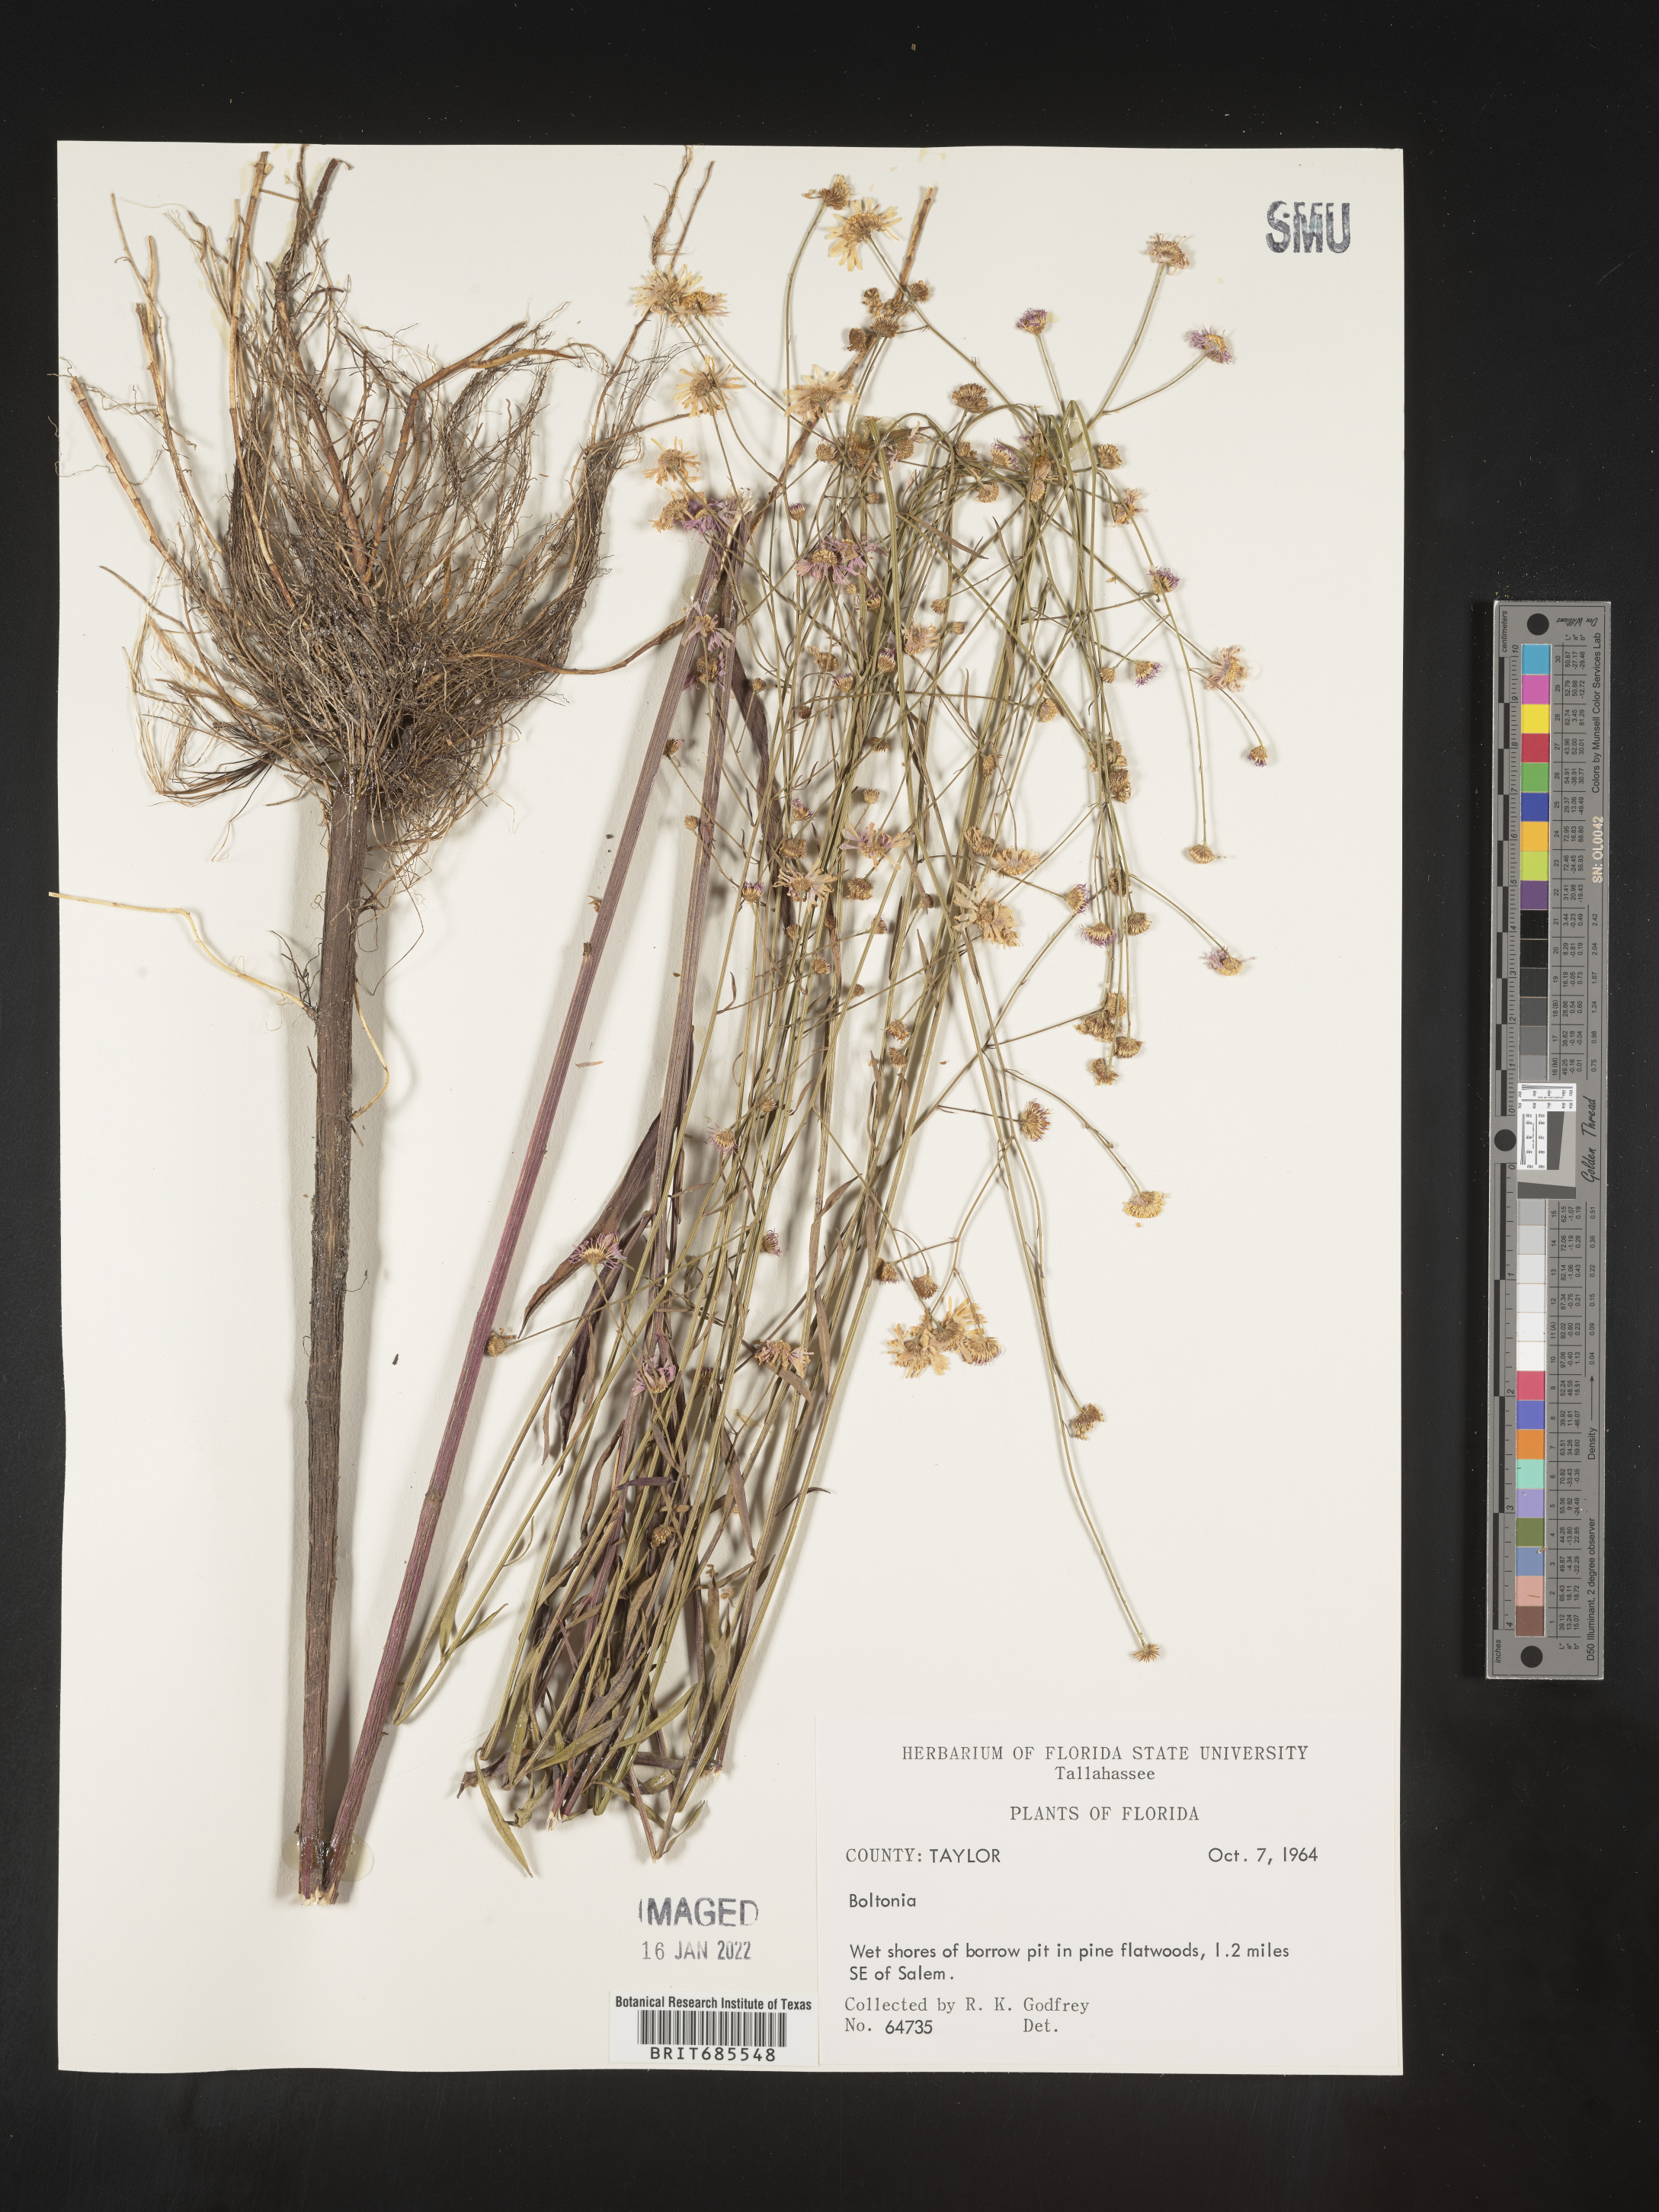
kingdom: Plantae
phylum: Tracheophyta
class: Magnoliopsida
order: Asterales
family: Asteraceae
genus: Boltonia
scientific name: Boltonia
